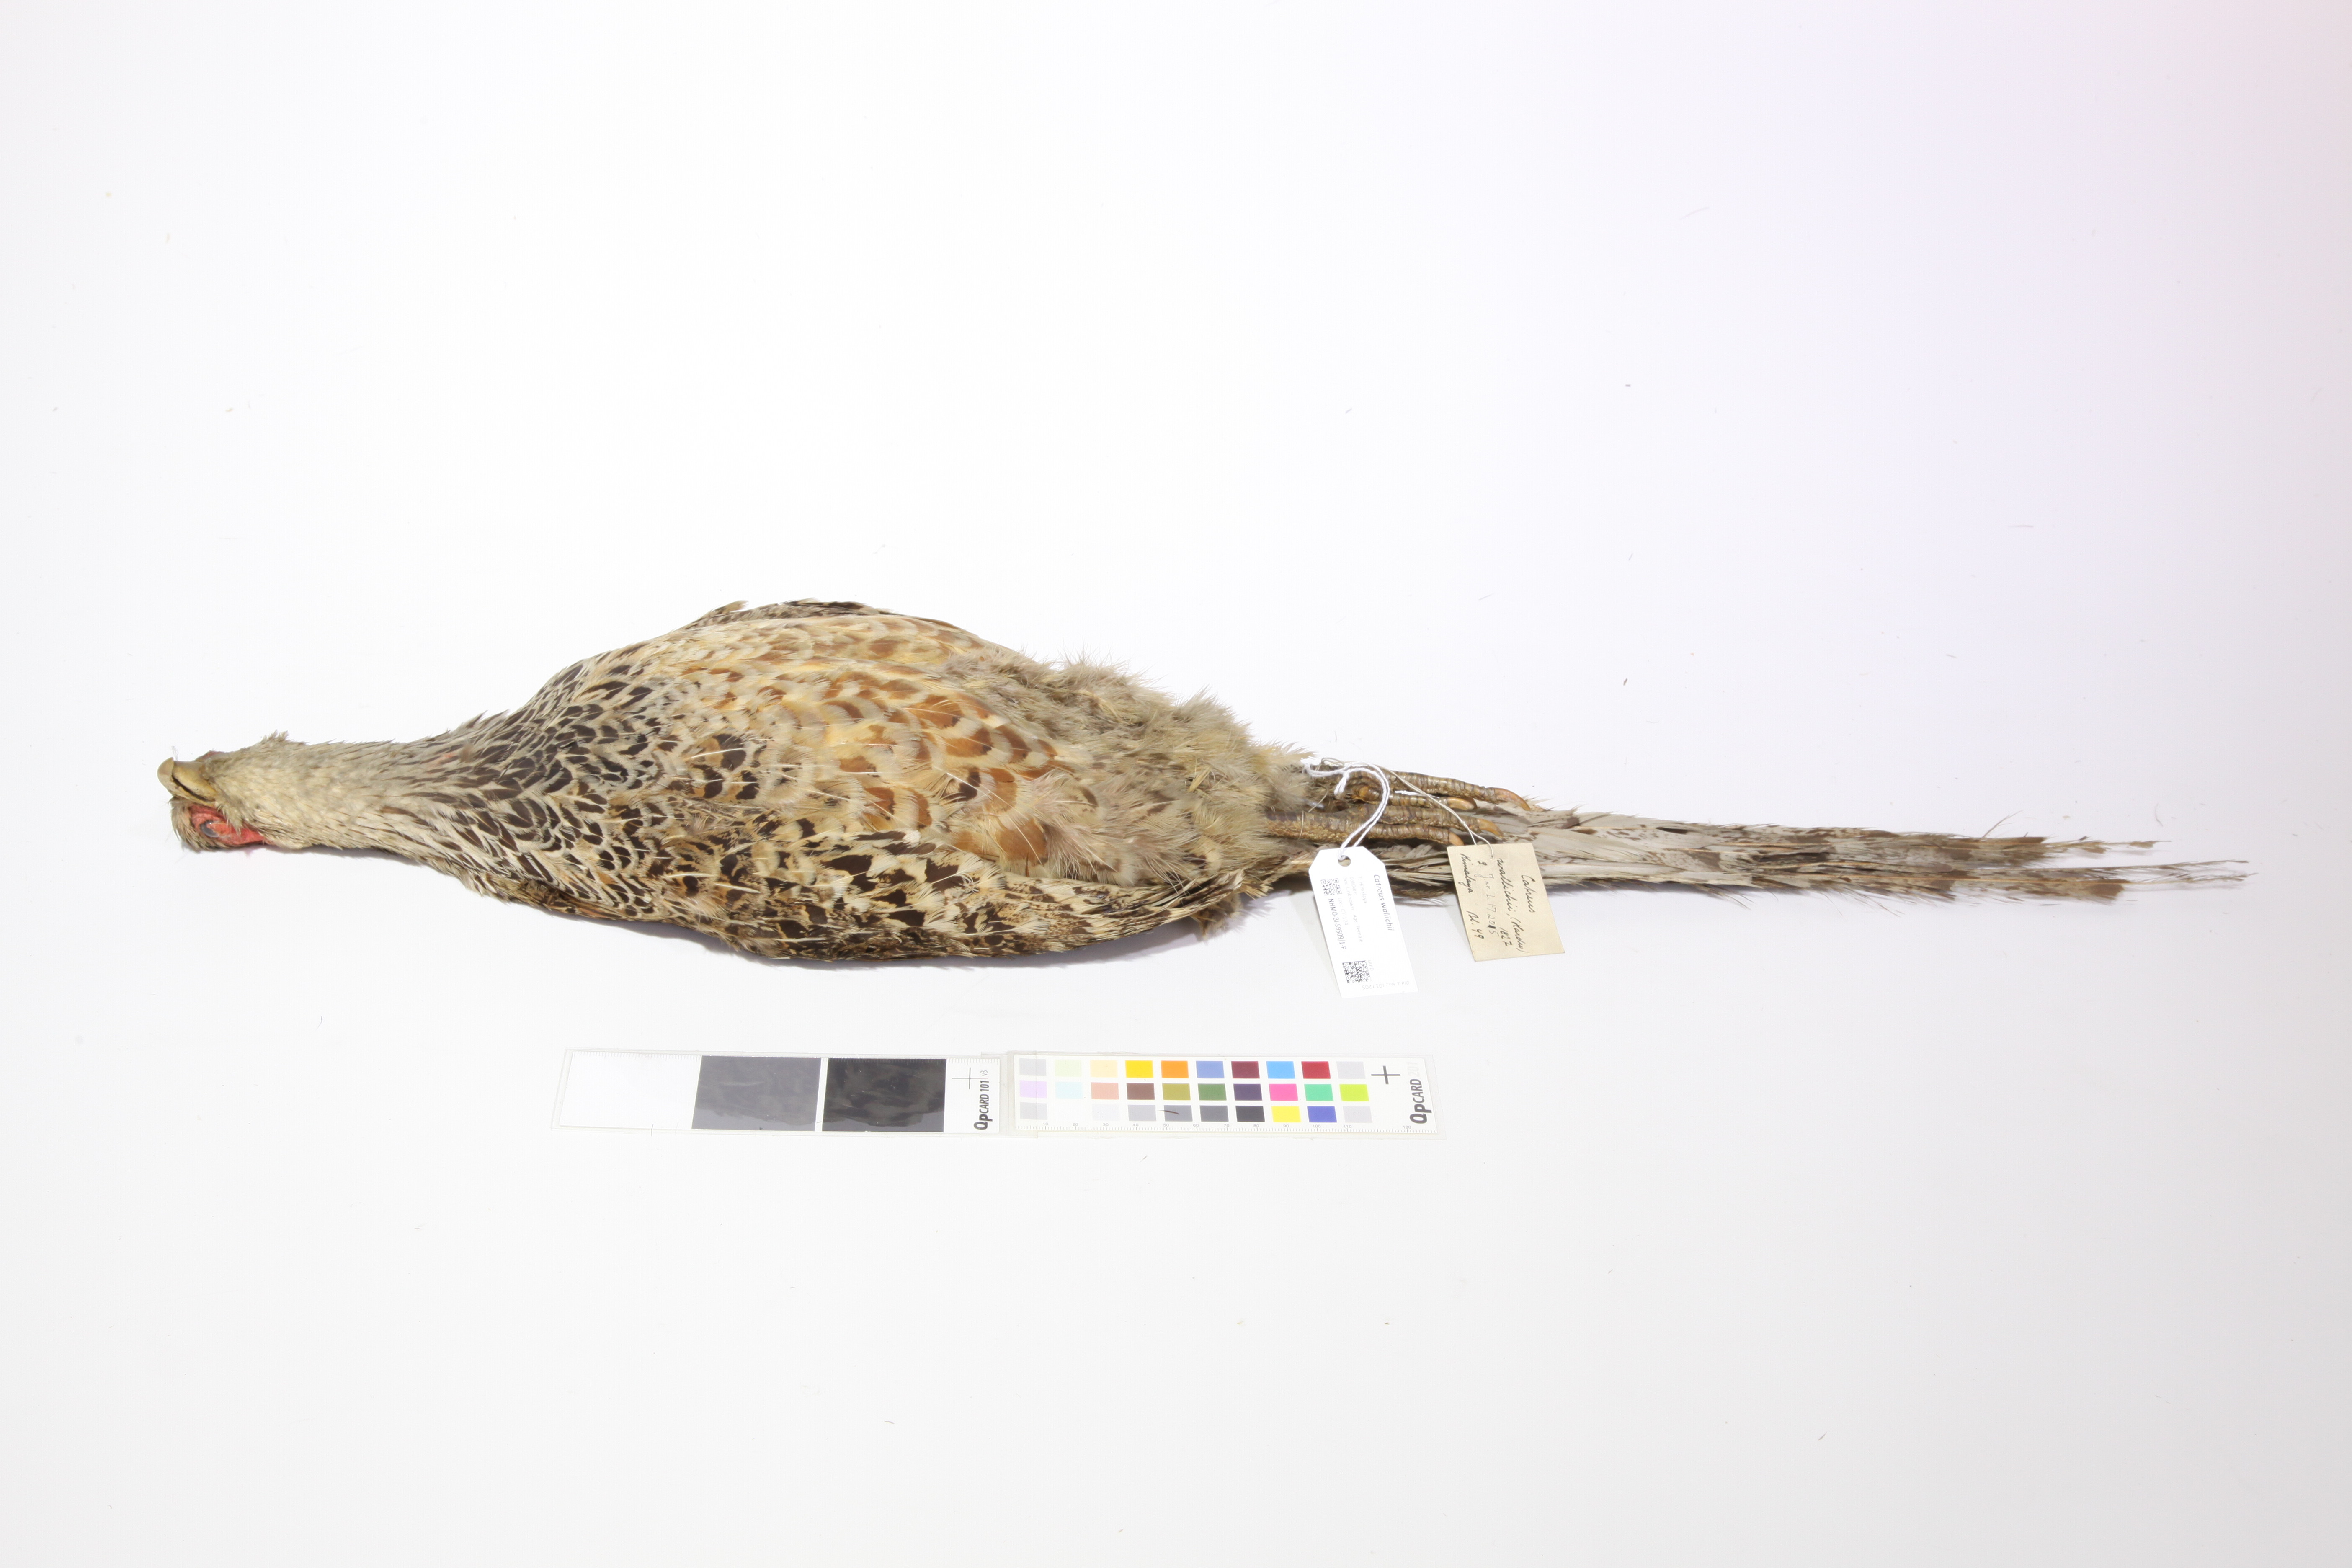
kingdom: Animalia
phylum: Chordata
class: Aves
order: Galliformes
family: Phasianidae
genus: Catreus
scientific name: Catreus wallichii
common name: Cheer pheasant
